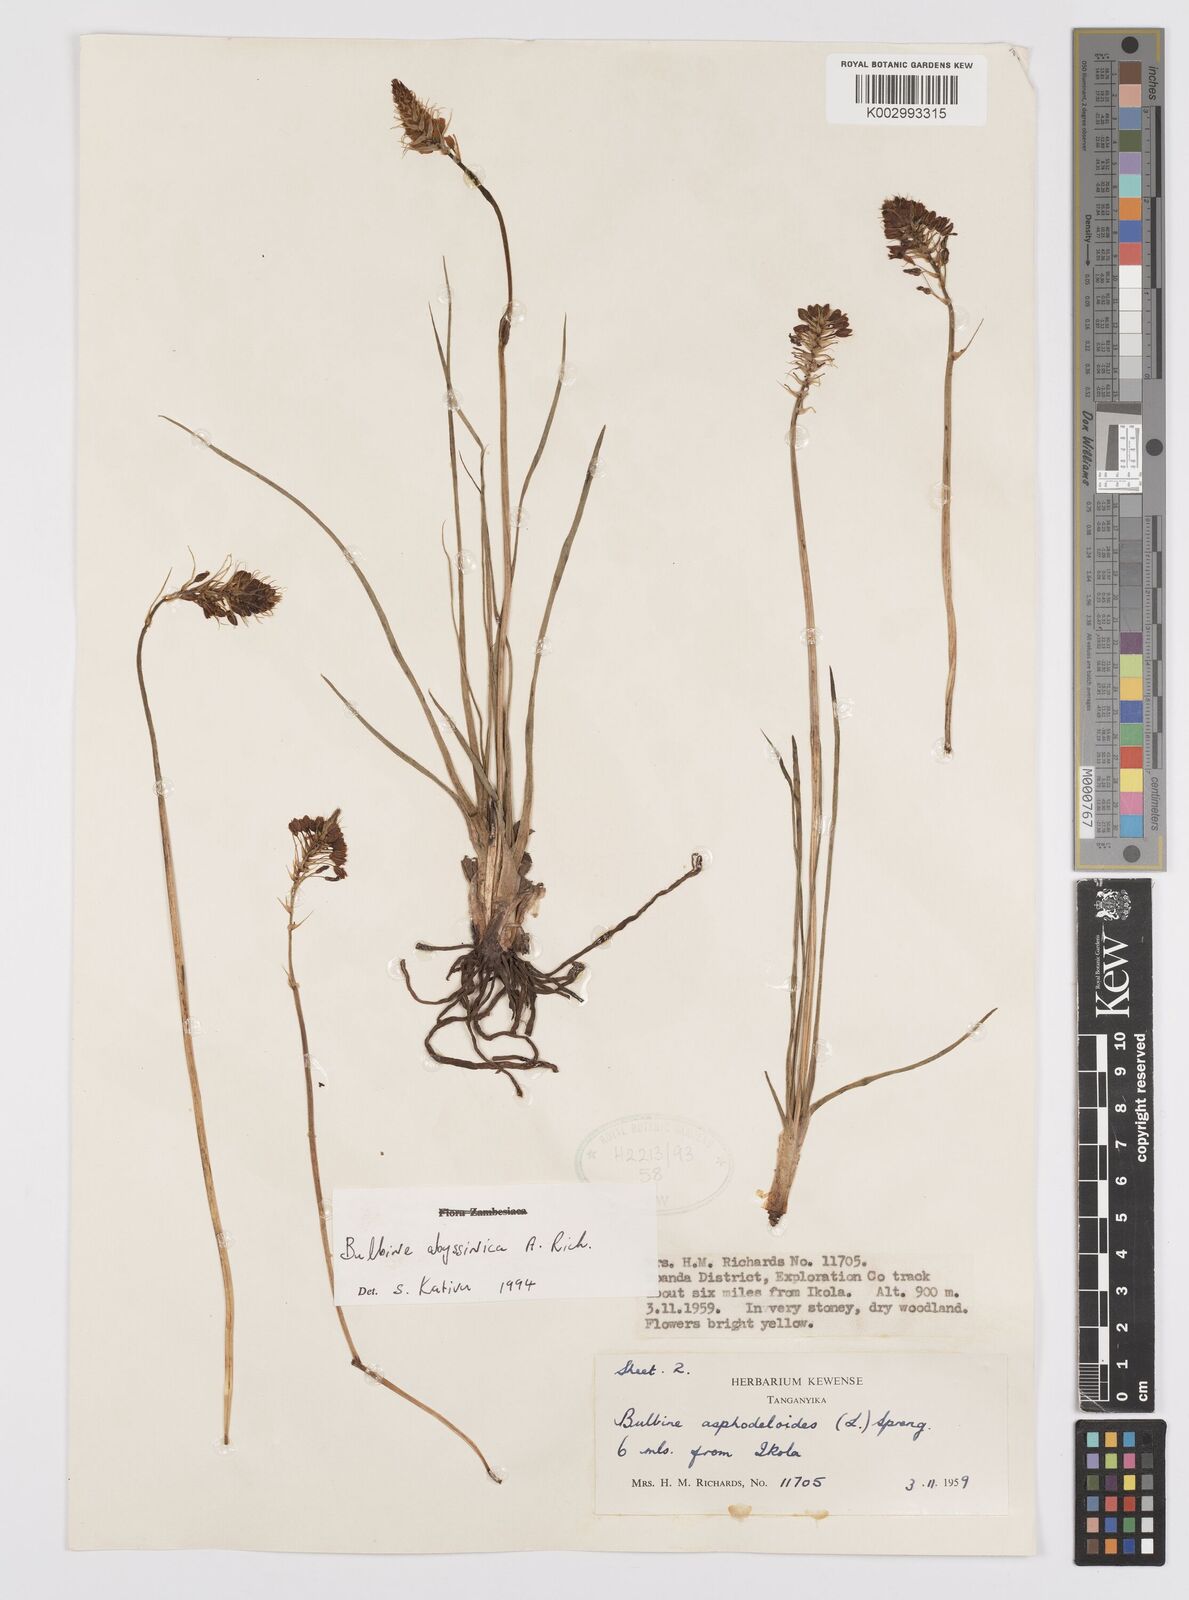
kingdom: Plantae
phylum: Tracheophyta
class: Liliopsida
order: Asparagales
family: Asphodelaceae
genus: Bulbine
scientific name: Bulbine abyssinica
